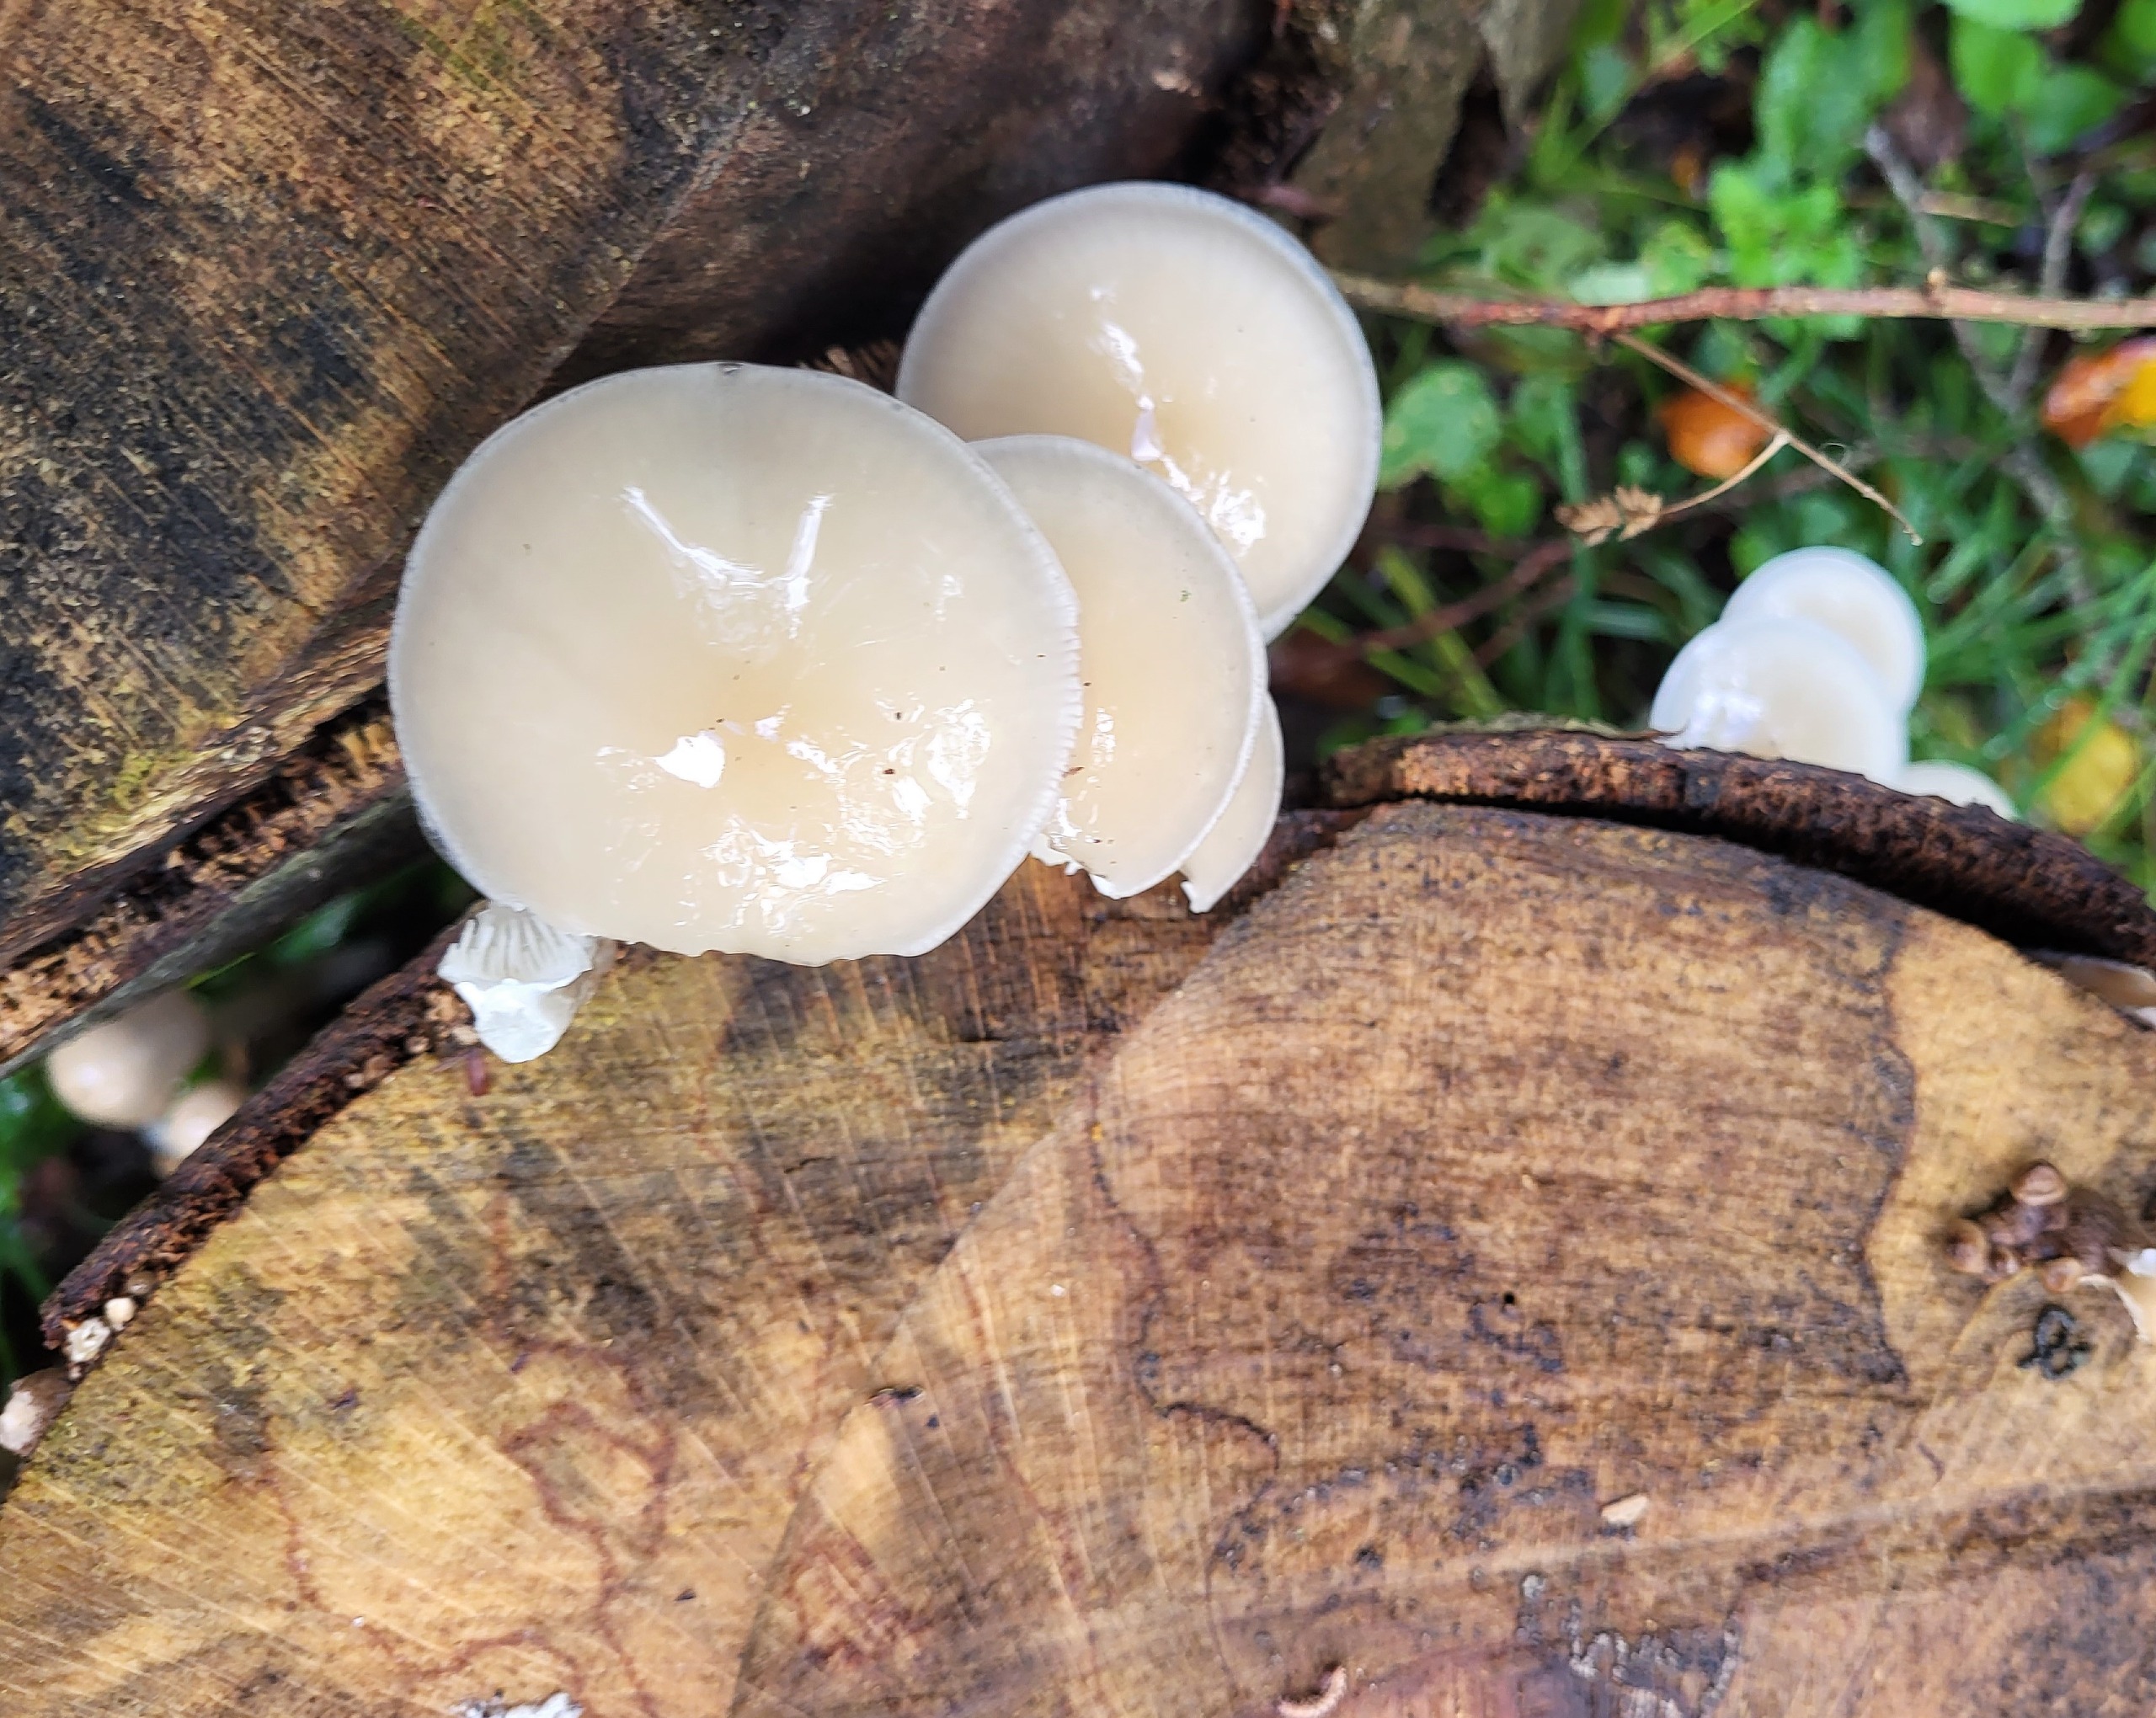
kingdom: Fungi
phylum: Basidiomycota
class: Agaricomycetes
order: Agaricales
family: Physalacriaceae
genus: Mucidula
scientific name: Mucidula mucida
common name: Porcelænshat
